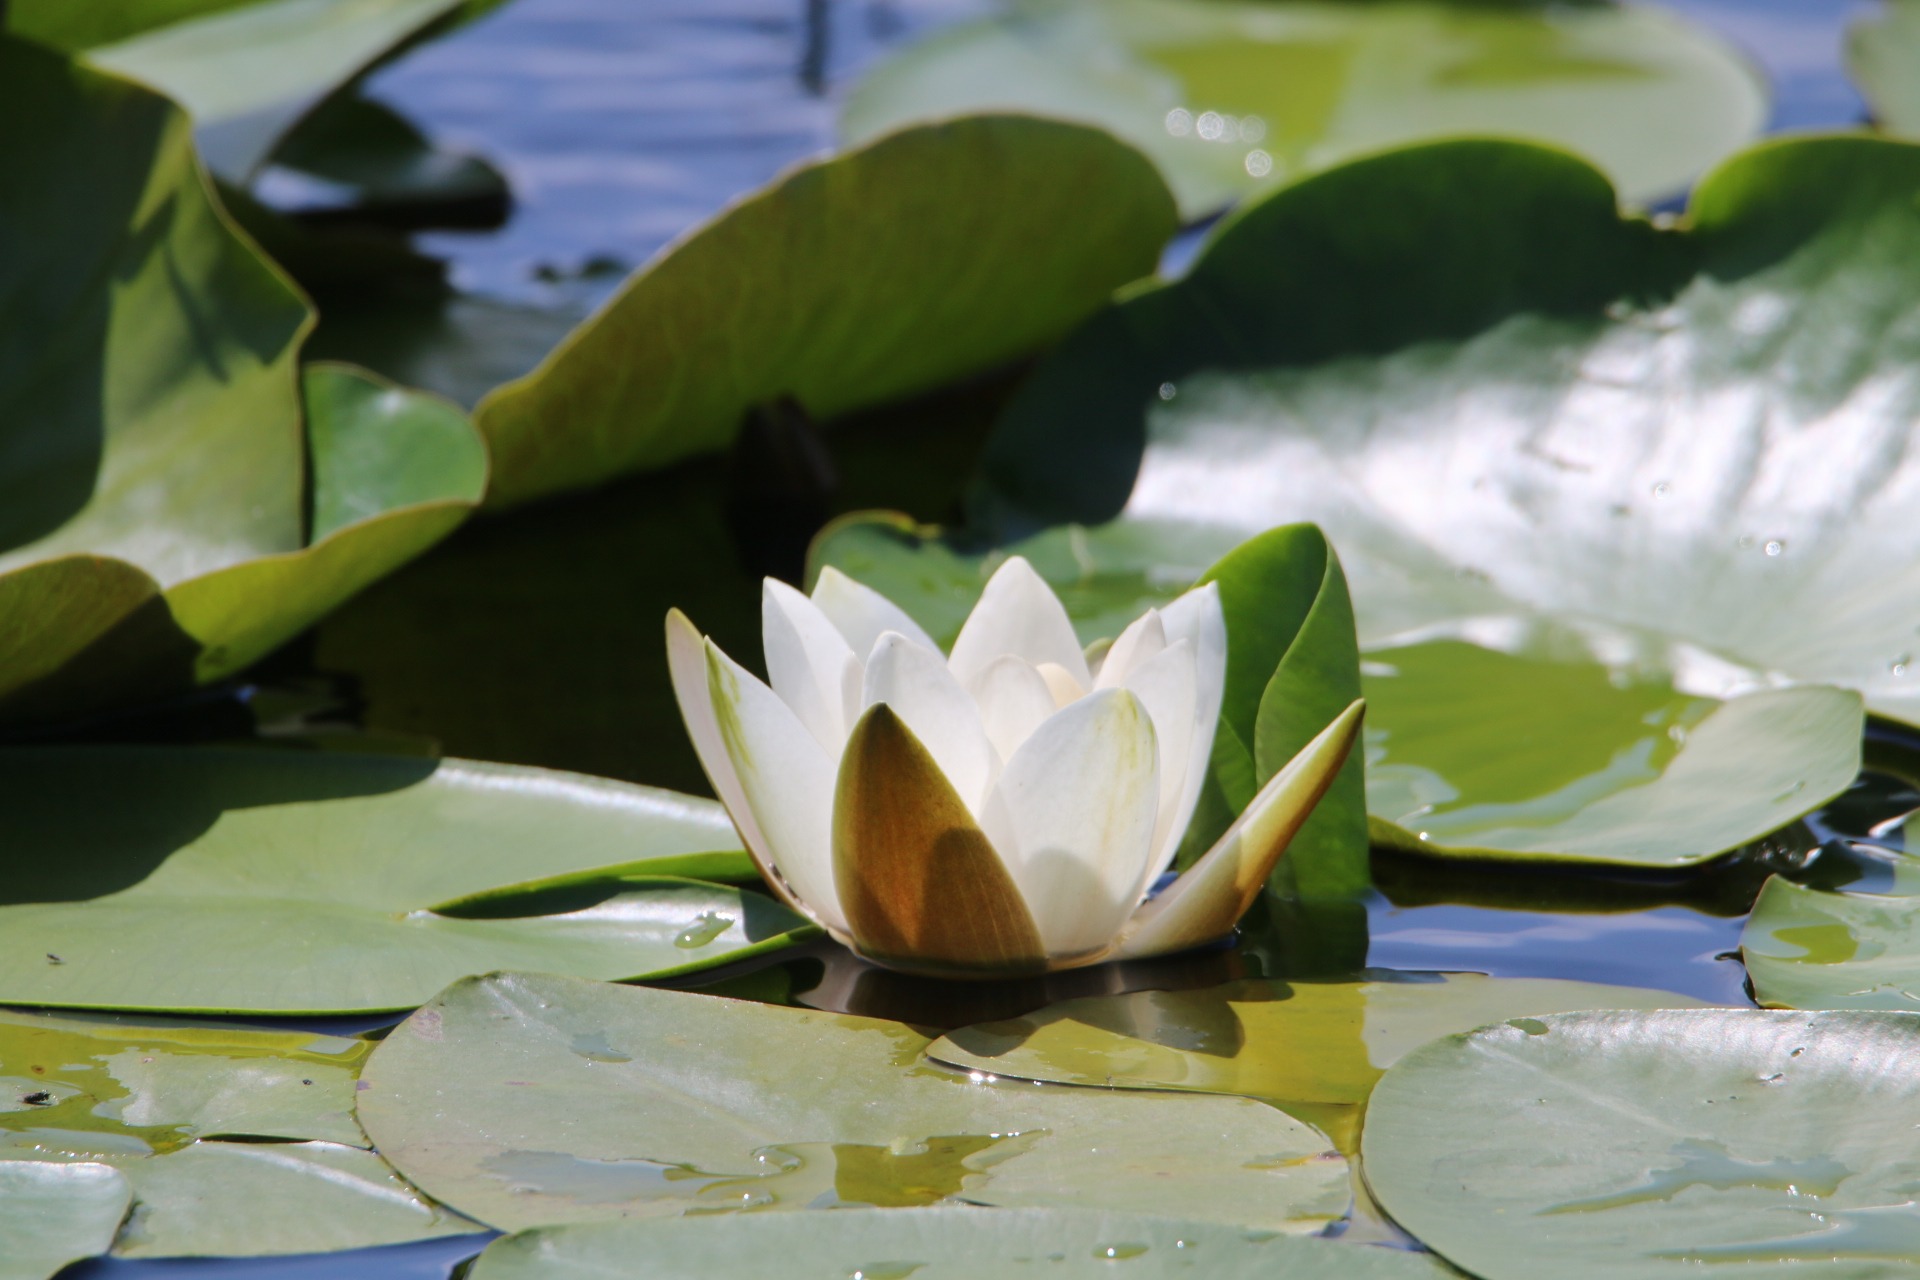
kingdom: Plantae
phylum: Tracheophyta
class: Magnoliopsida
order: Nymphaeales
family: Nymphaeaceae
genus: Nymphaea
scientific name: Nymphaea alba
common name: Hvid åkande
